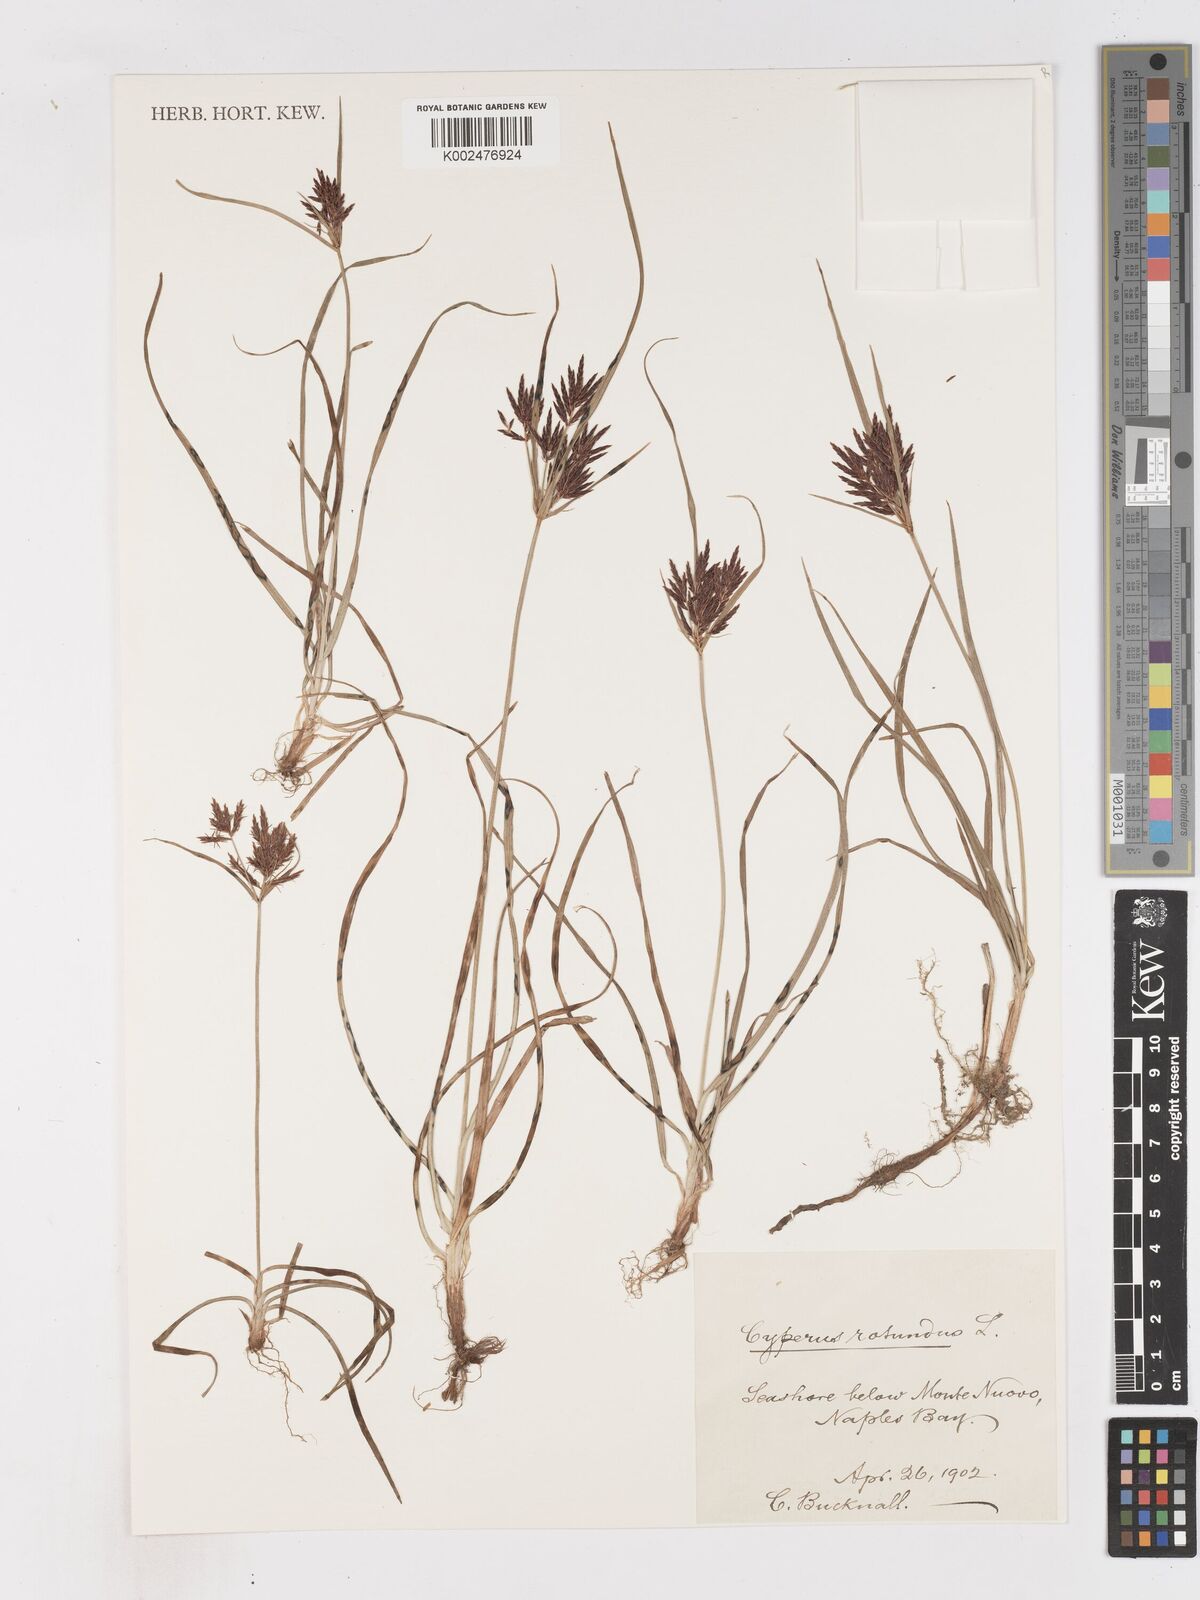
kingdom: Plantae
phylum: Tracheophyta
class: Liliopsida
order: Poales
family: Cyperaceae
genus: Cyperus
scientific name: Cyperus rotundus
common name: Nutgrass
